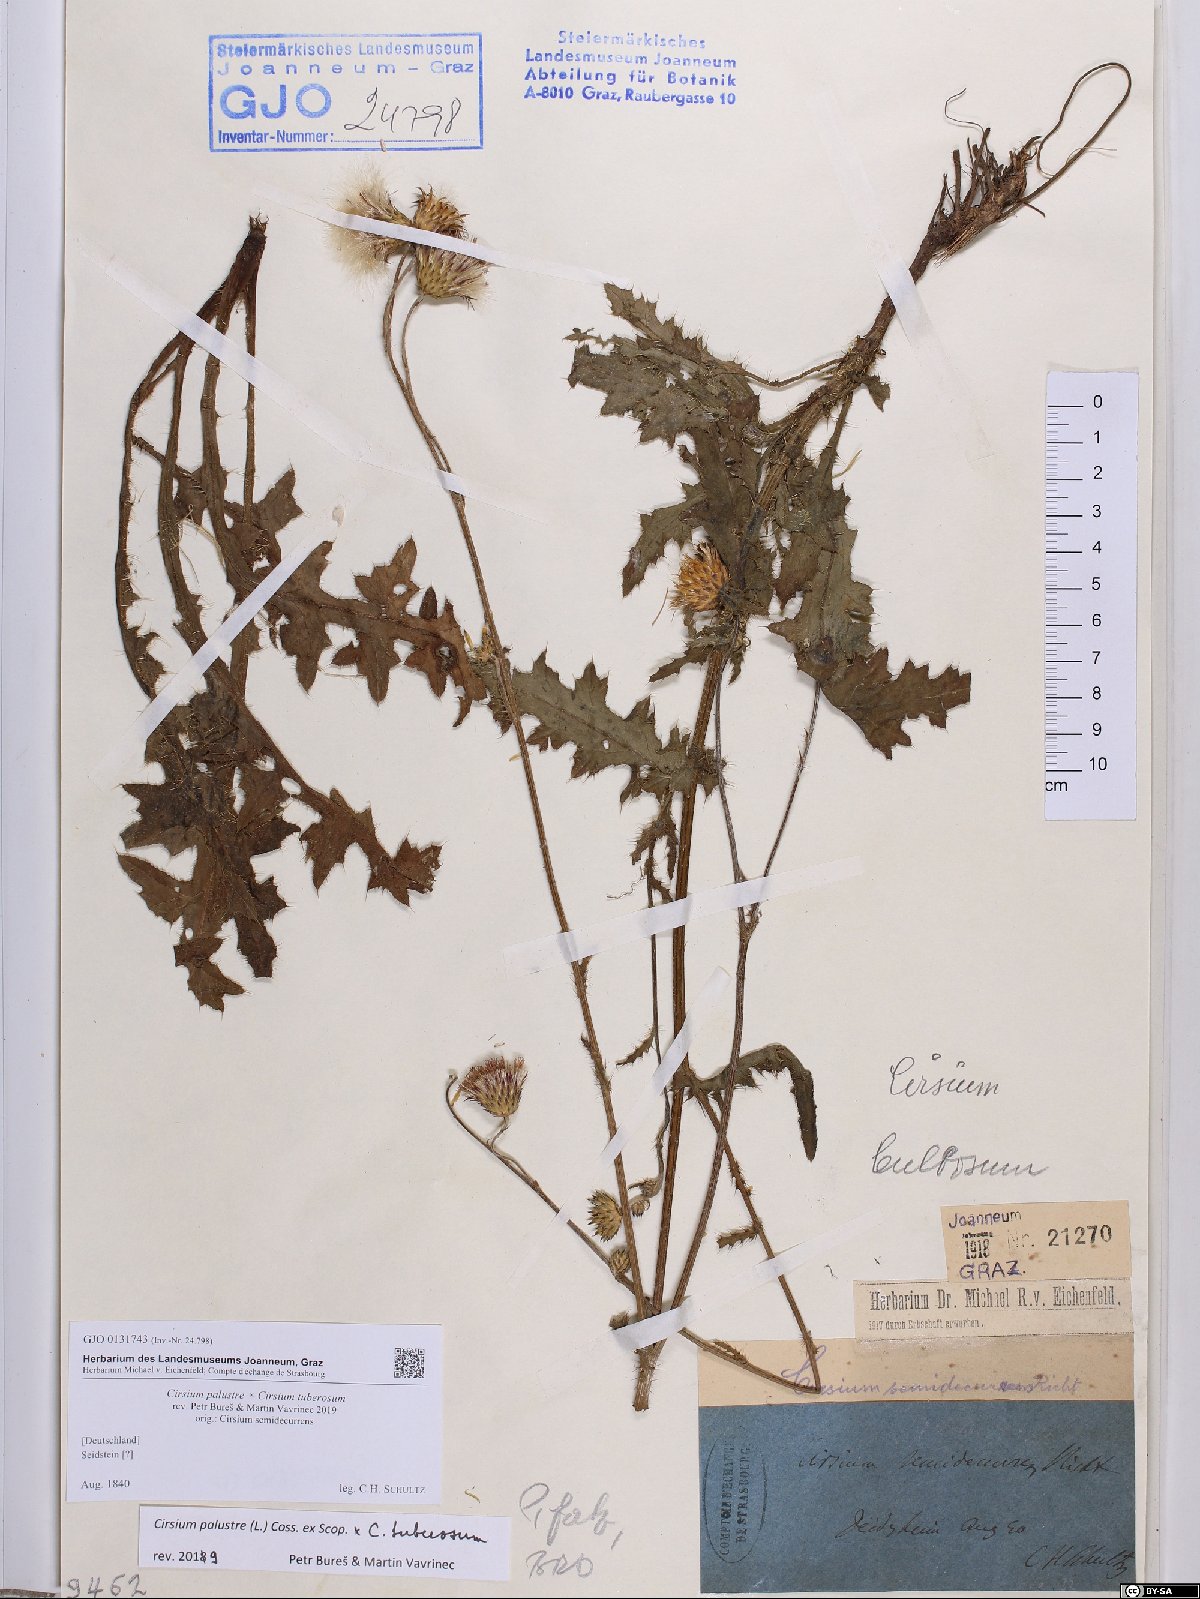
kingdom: Plantae
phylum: Tracheophyta
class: Magnoliopsida
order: Asterales
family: Asteraceae
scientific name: Asteraceae
